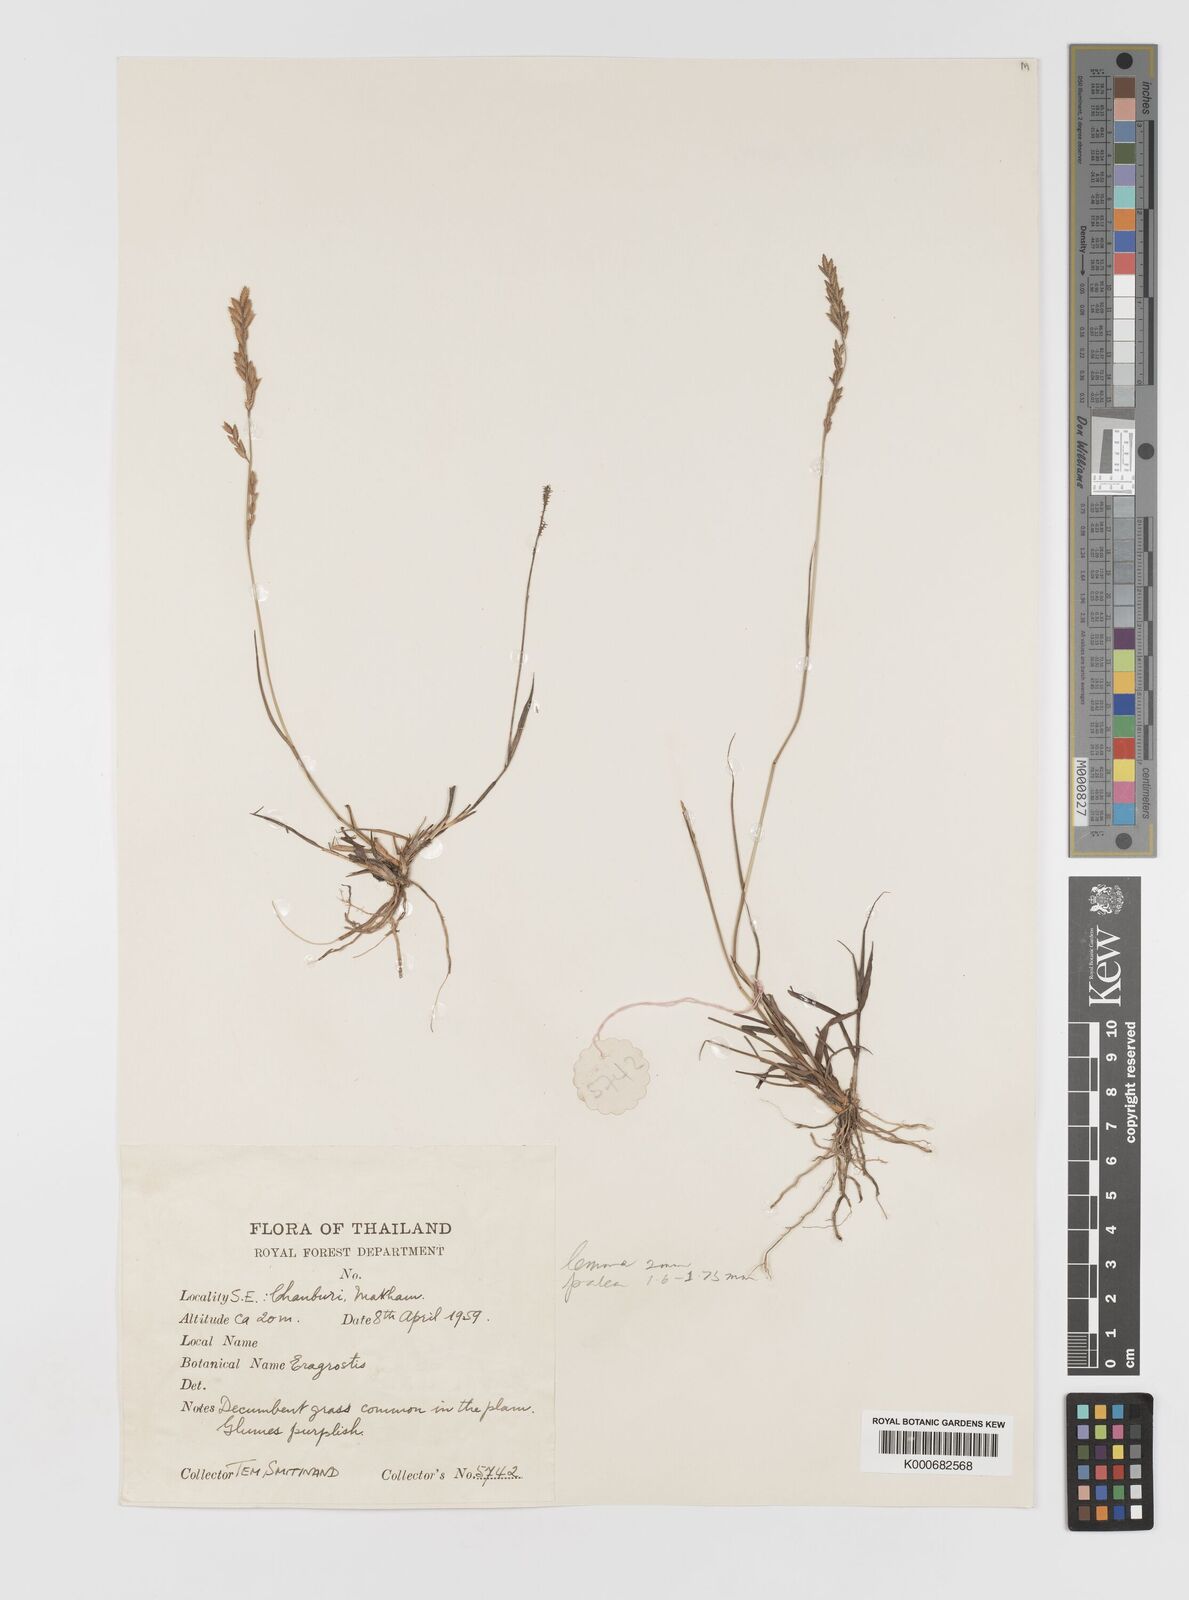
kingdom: Plantae
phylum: Tracheophyta
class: Liliopsida
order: Poales
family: Poaceae
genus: Eragrostis
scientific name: Eragrostis
